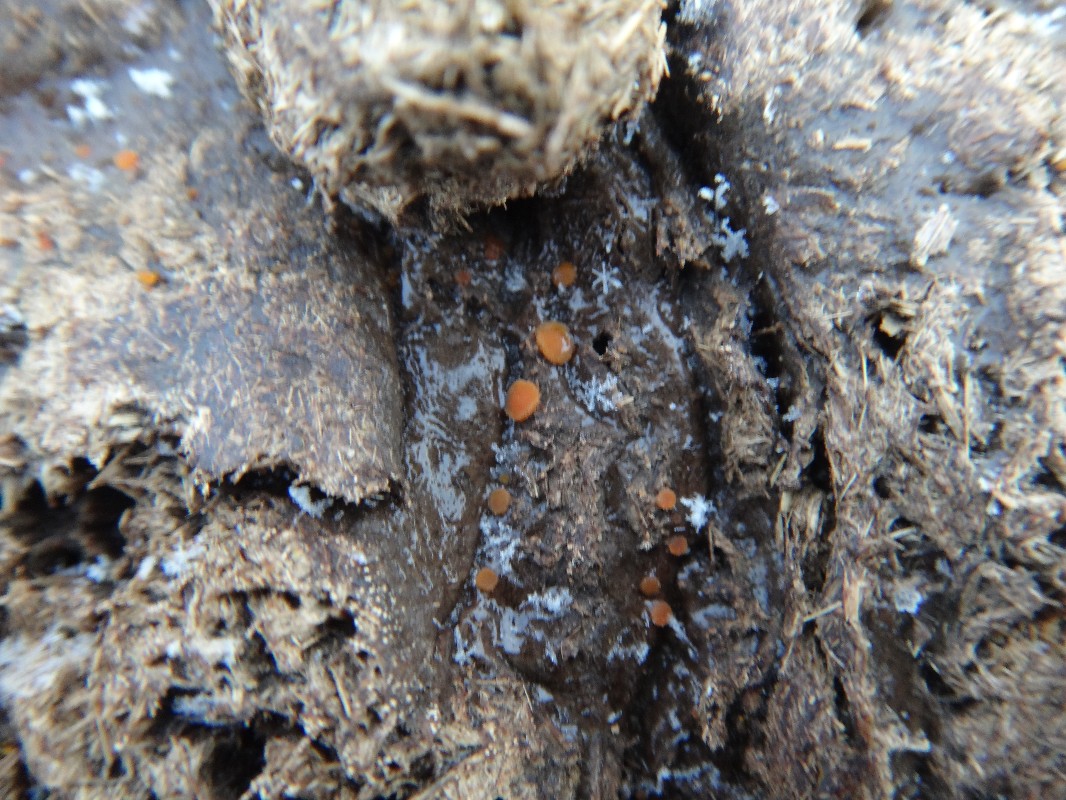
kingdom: Fungi
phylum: Ascomycota
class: Pezizomycetes
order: Pezizales
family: Pyronemataceae
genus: Cheilymenia
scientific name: Cheilymenia granulata
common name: møgbæger
